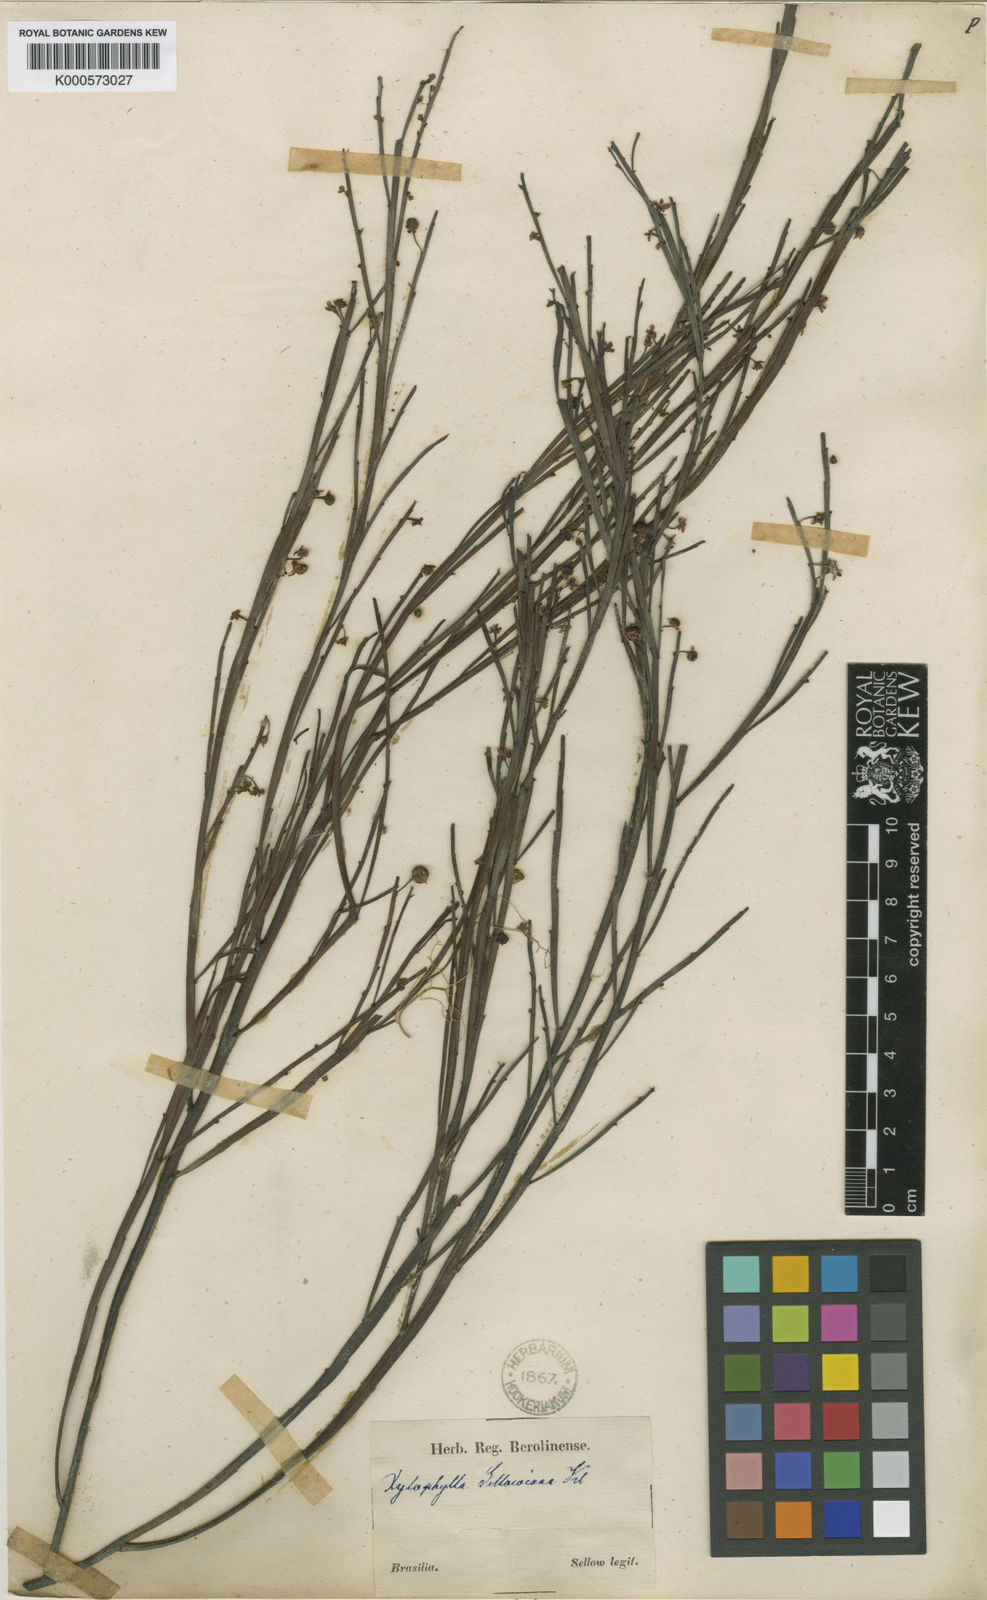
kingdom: Plantae
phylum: Tracheophyta
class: Magnoliopsida
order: Malpighiales
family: Phyllanthaceae
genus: Phyllanthus
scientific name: Phyllanthus
